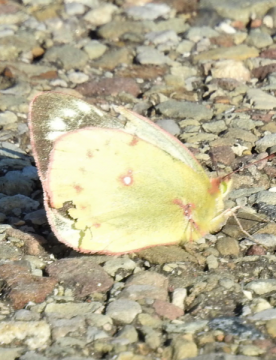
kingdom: Animalia
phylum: Arthropoda
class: Insecta
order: Lepidoptera
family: Pieridae
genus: Colias
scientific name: Colias philodice
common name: Clouded Sulphur
